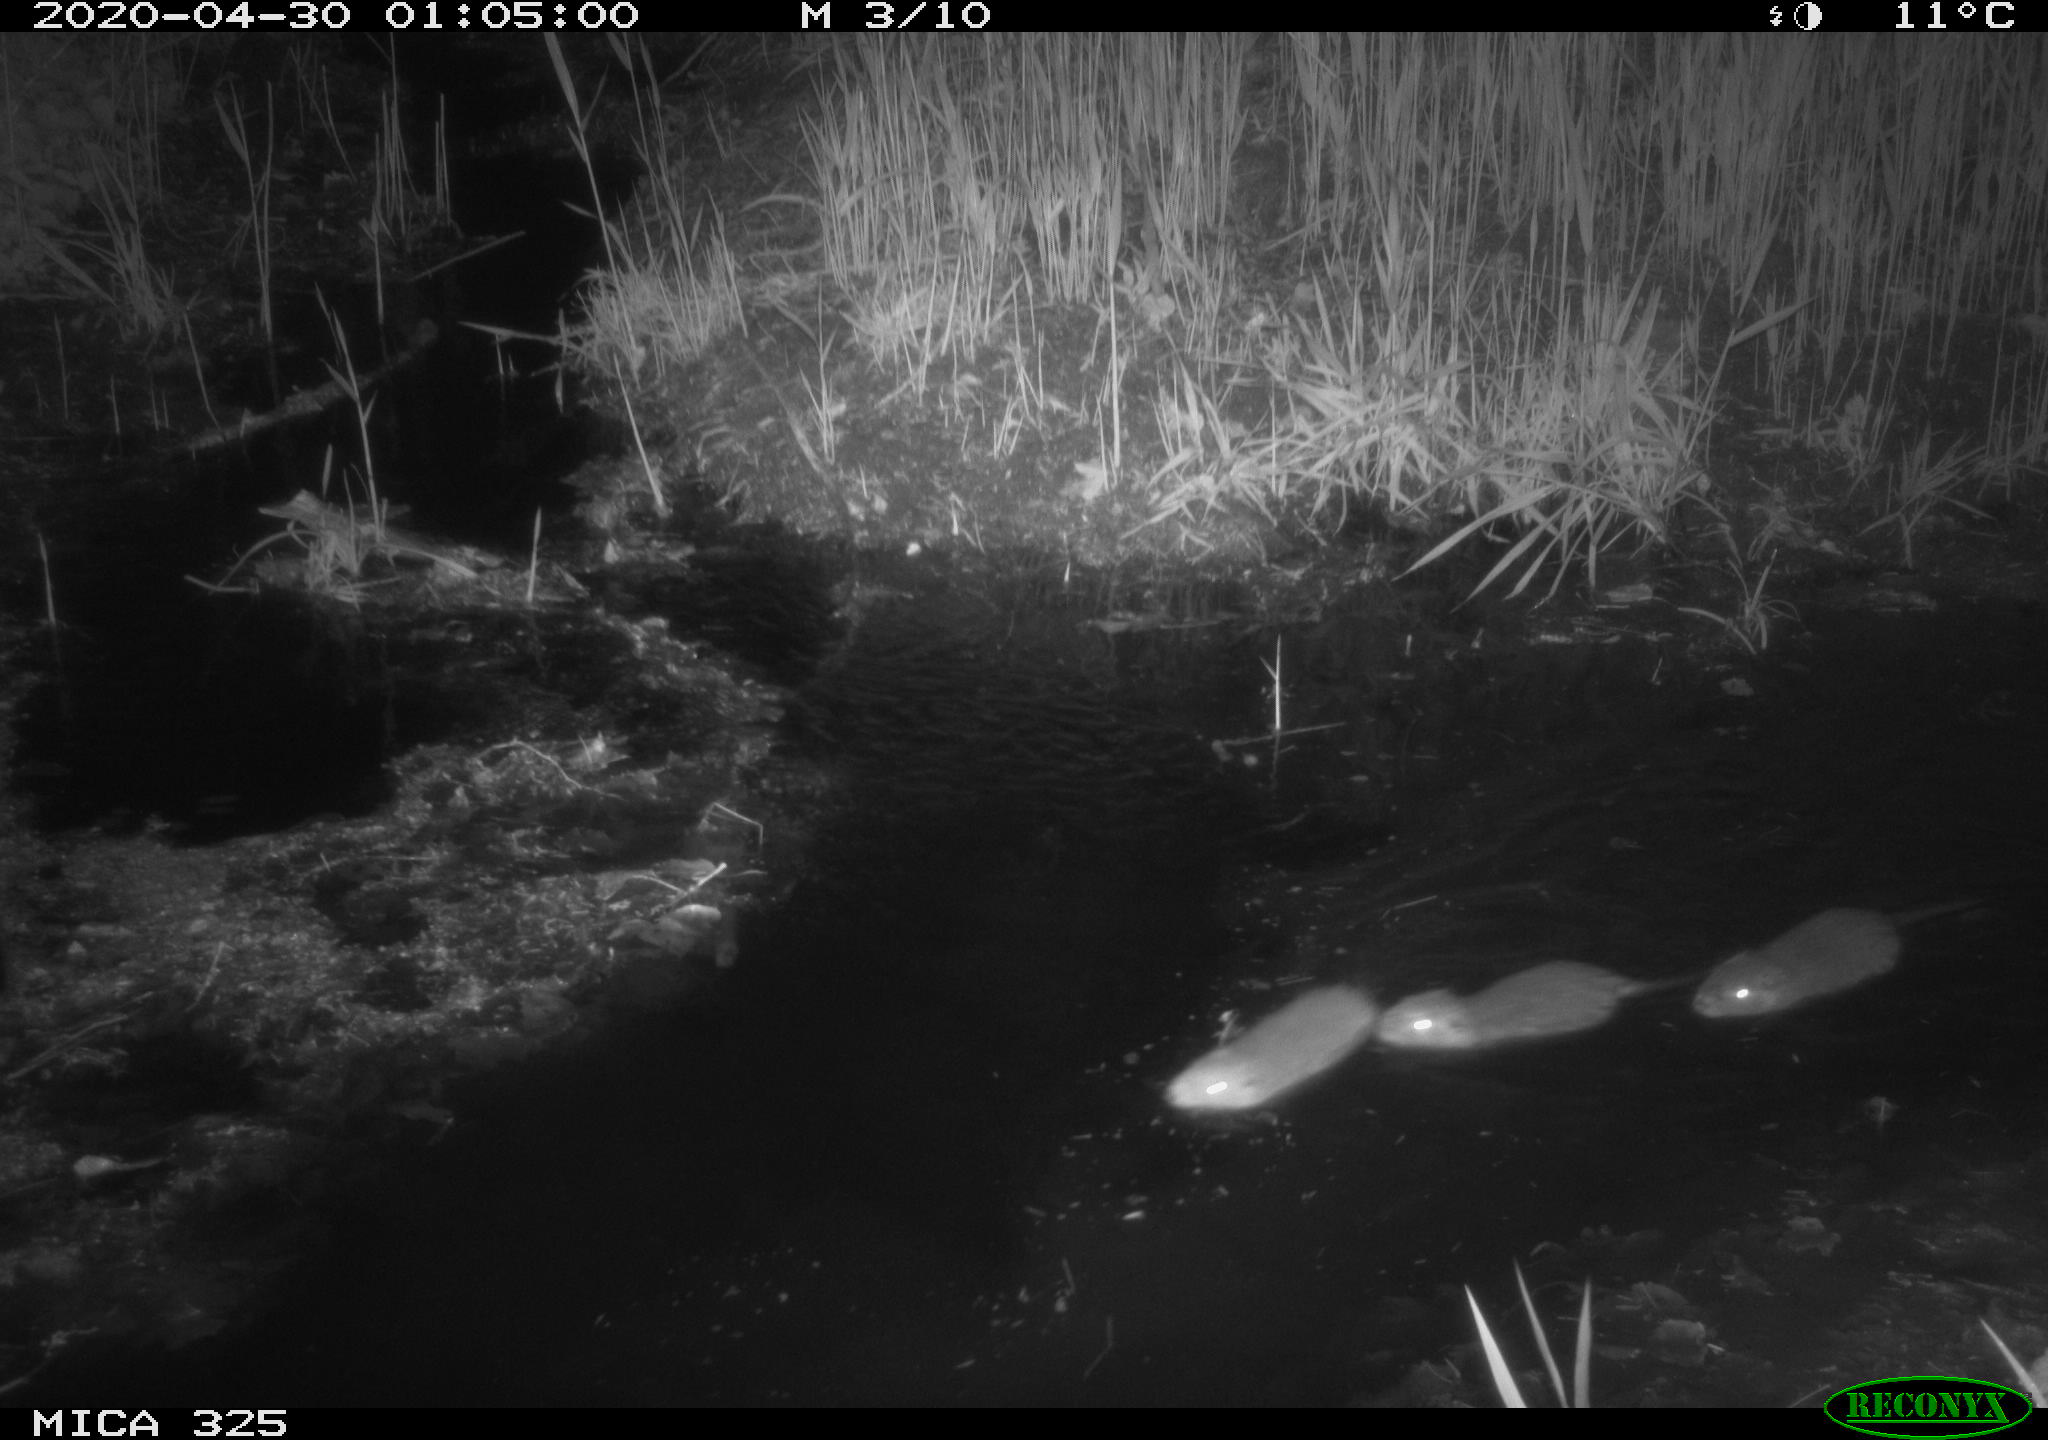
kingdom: Animalia
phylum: Chordata
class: Mammalia
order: Rodentia
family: Myocastoridae
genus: Myocastor
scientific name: Myocastor coypus
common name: Coypu
